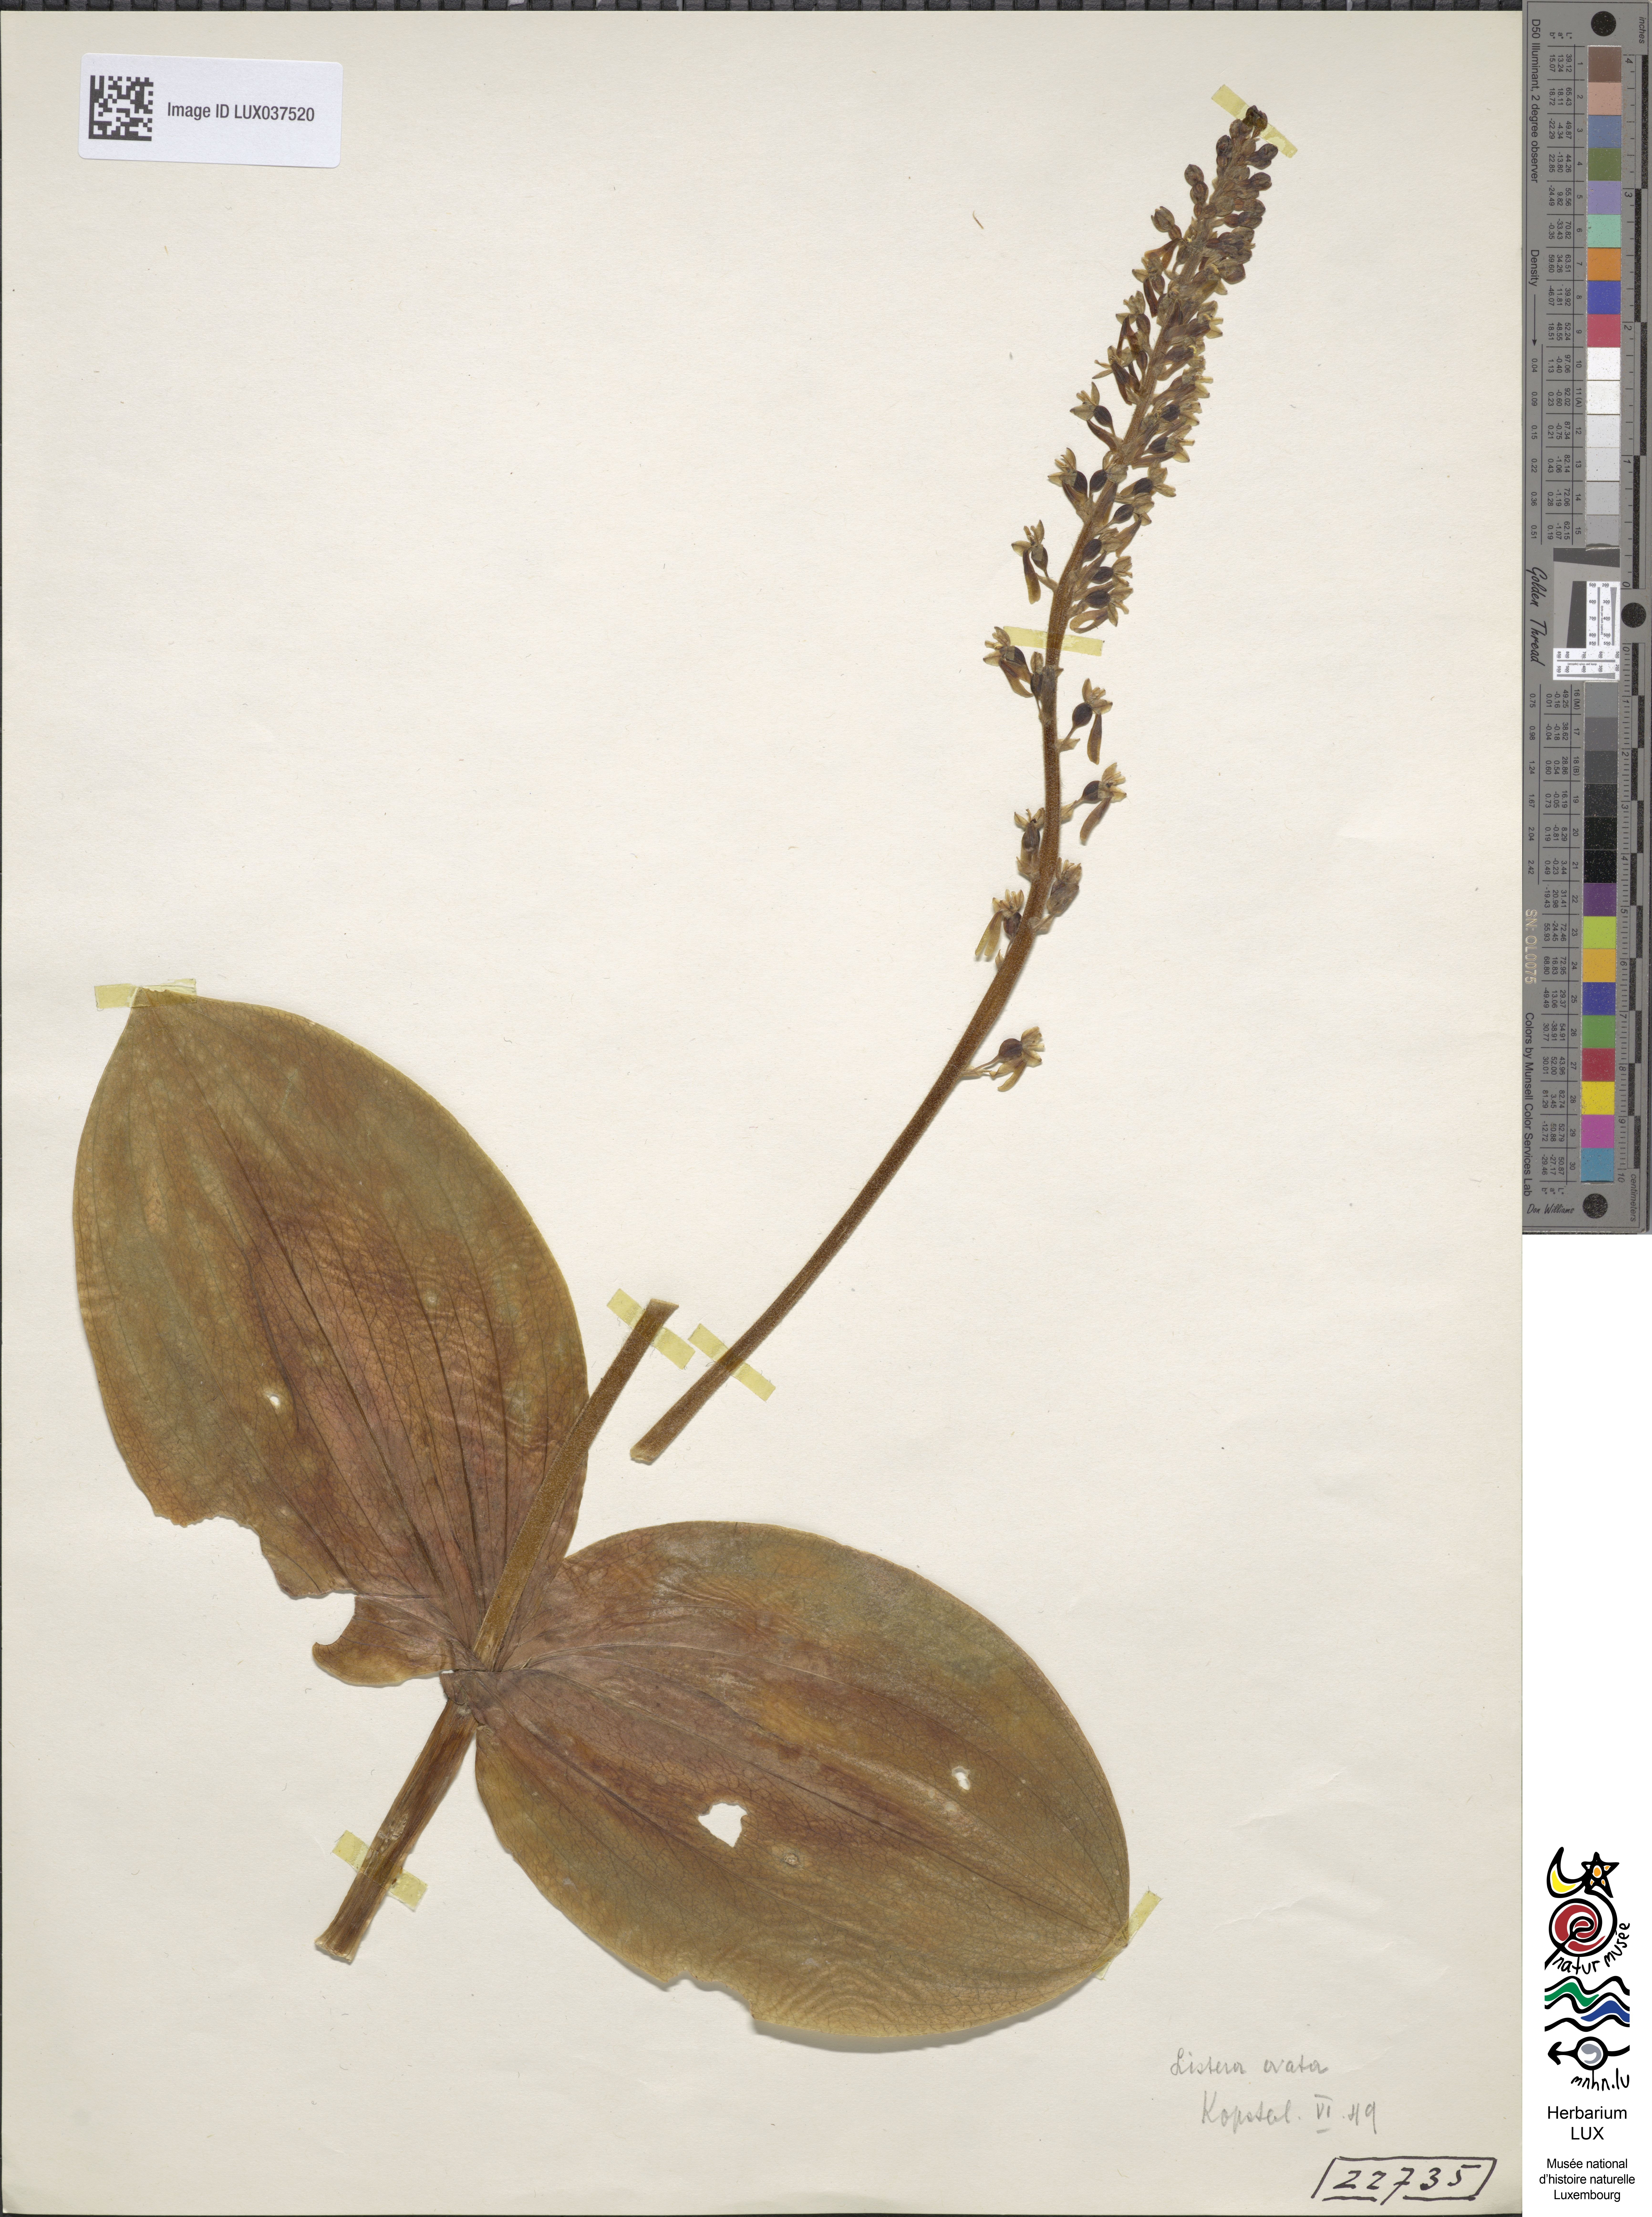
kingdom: Plantae
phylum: Tracheophyta
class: Liliopsida
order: Asparagales
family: Orchidaceae
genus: Neottia
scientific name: Neottia ovata
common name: Common twayblade
